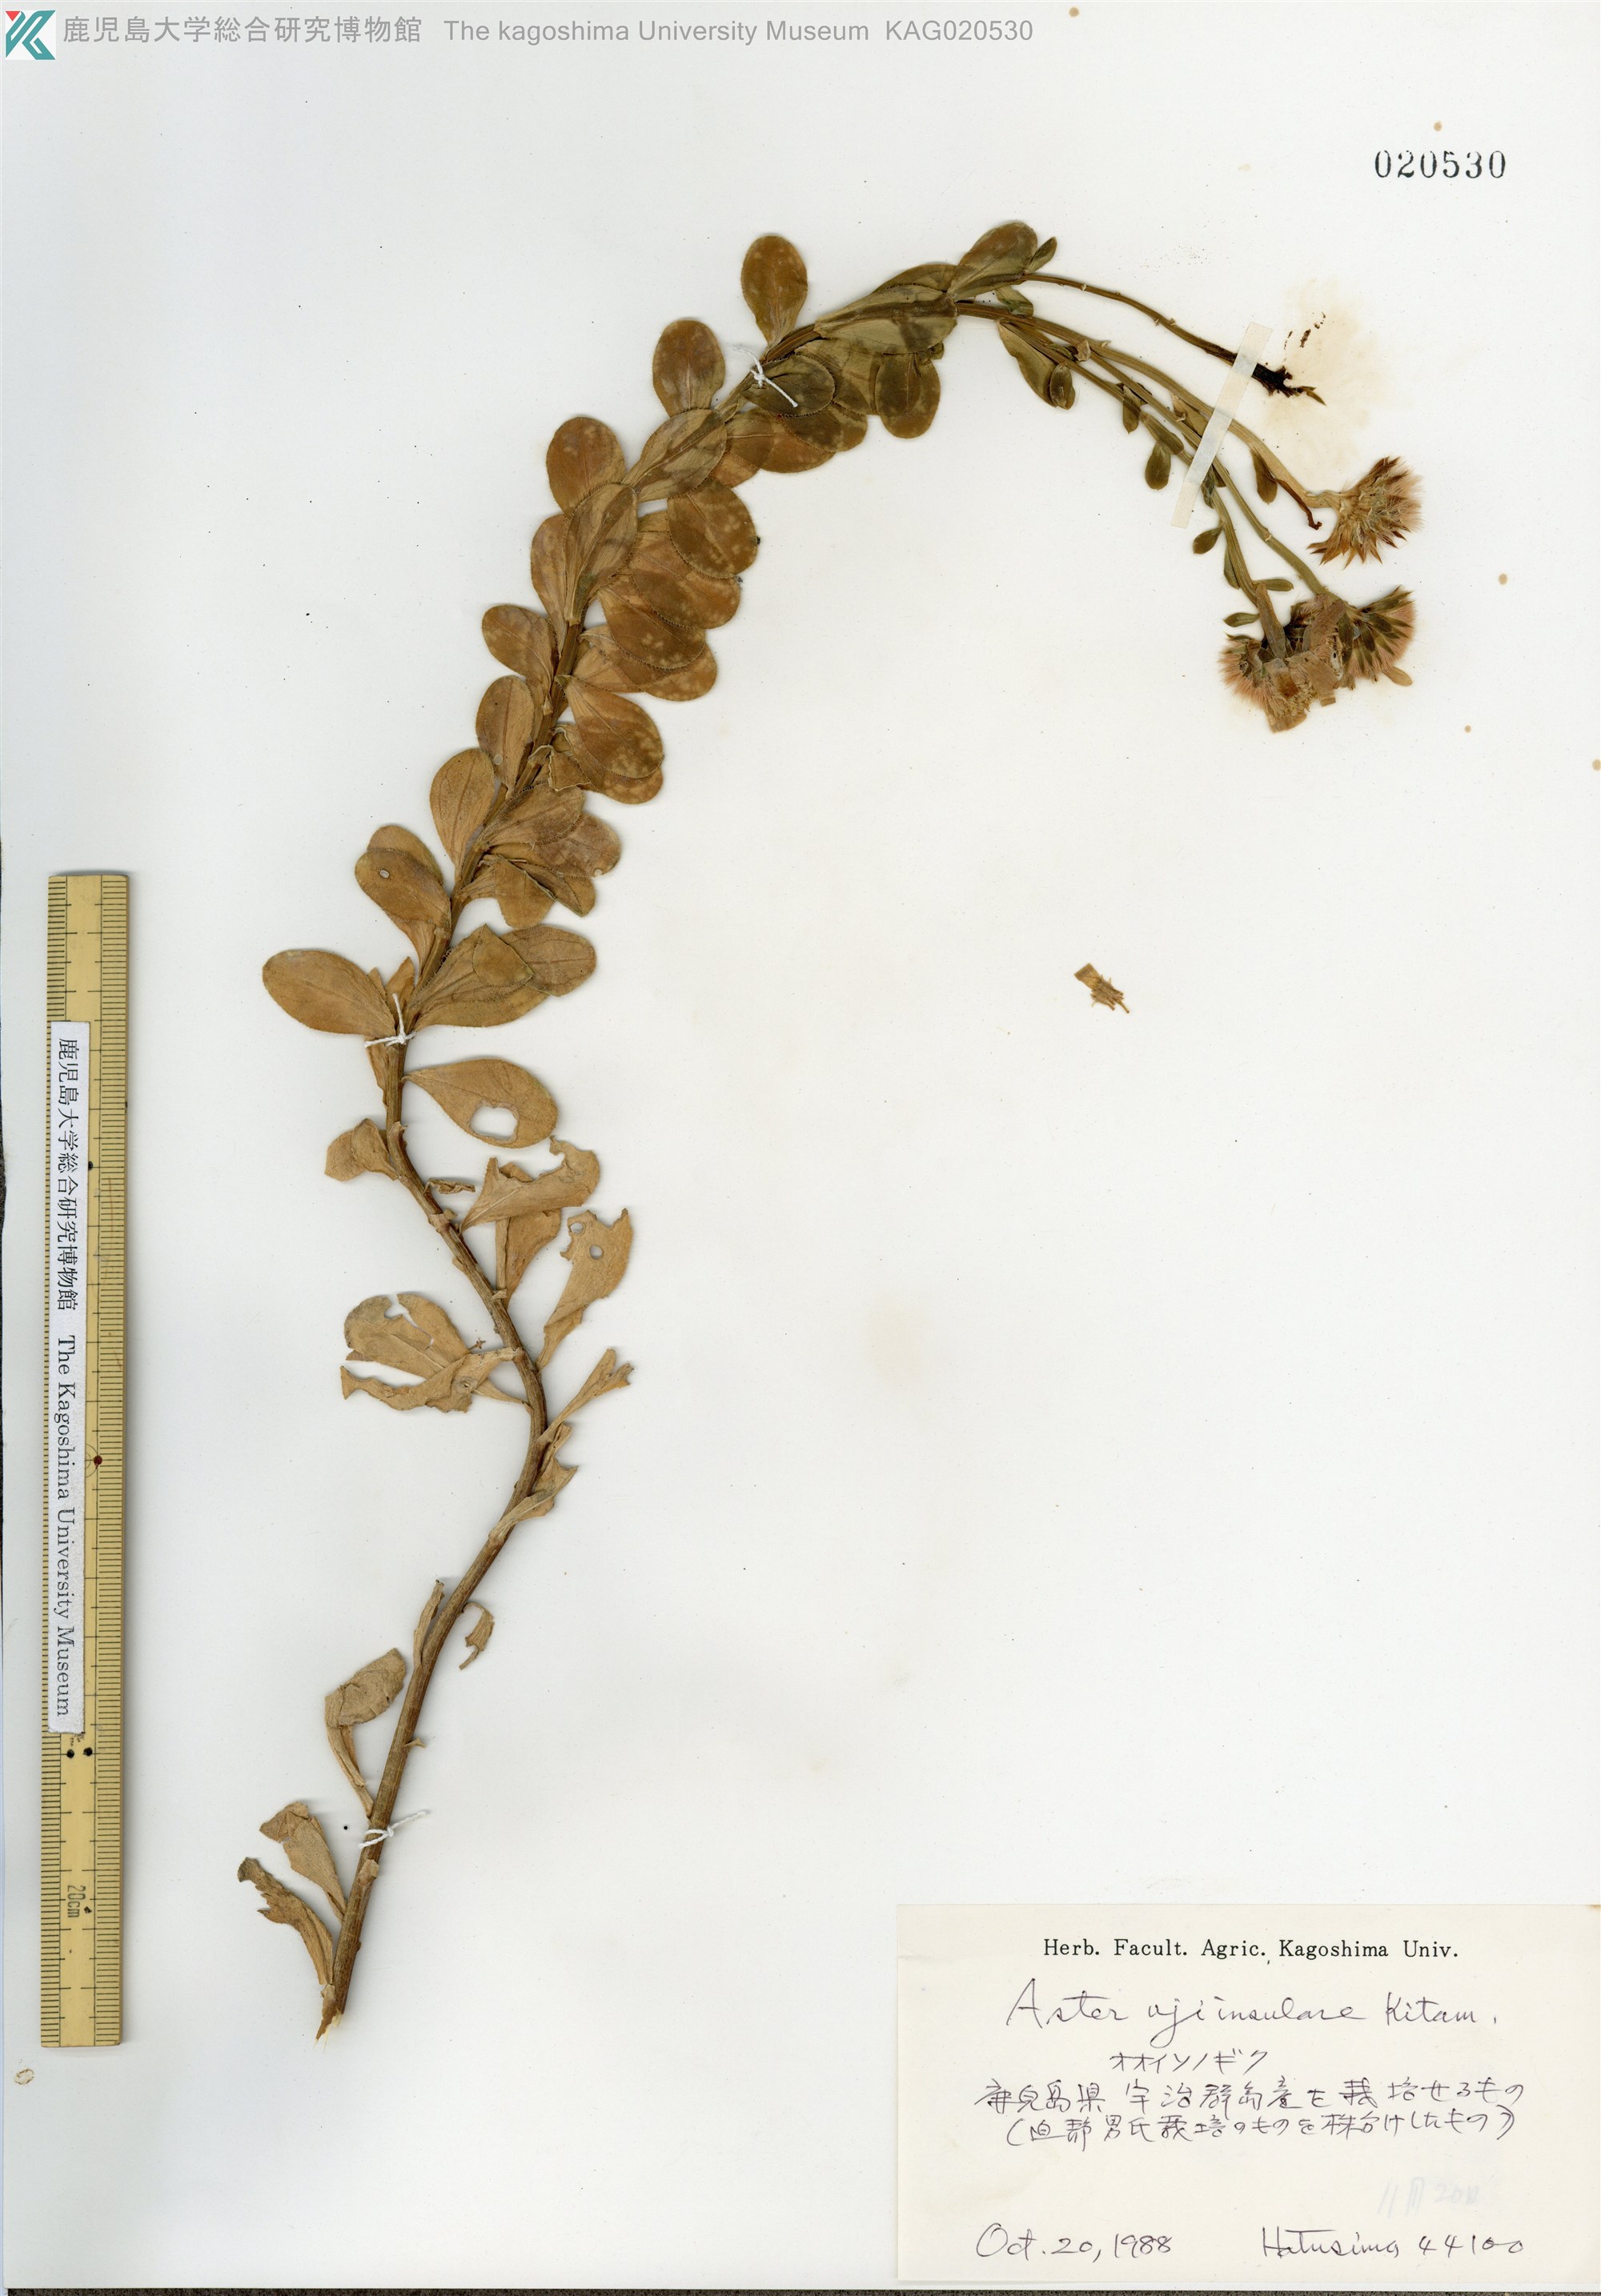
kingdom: Plantae
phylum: Tracheophyta
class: Magnoliopsida
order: Asterales
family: Asteraceae
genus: Aster
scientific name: Aster ujiinsularis
